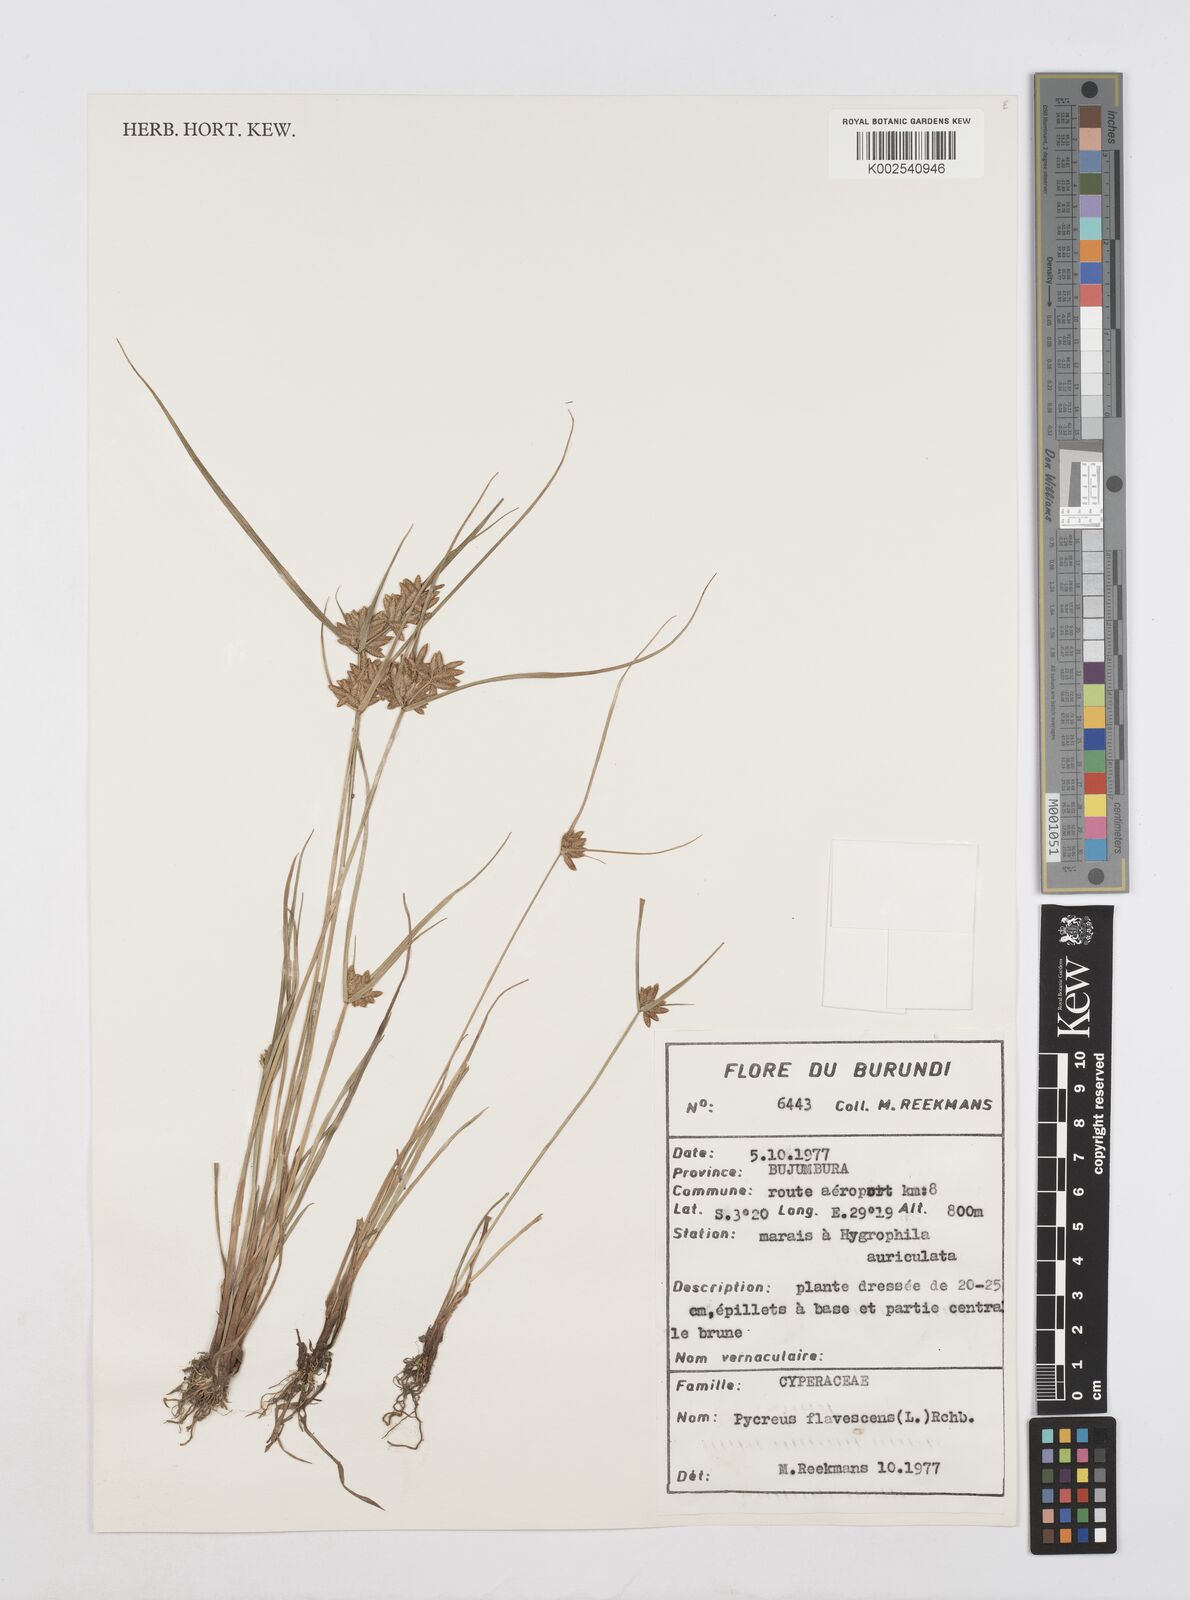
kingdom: Plantae
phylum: Tracheophyta
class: Liliopsida
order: Poales
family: Cyperaceae
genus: Cyperus
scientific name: Cyperus flavescens
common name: Yellow galingale
